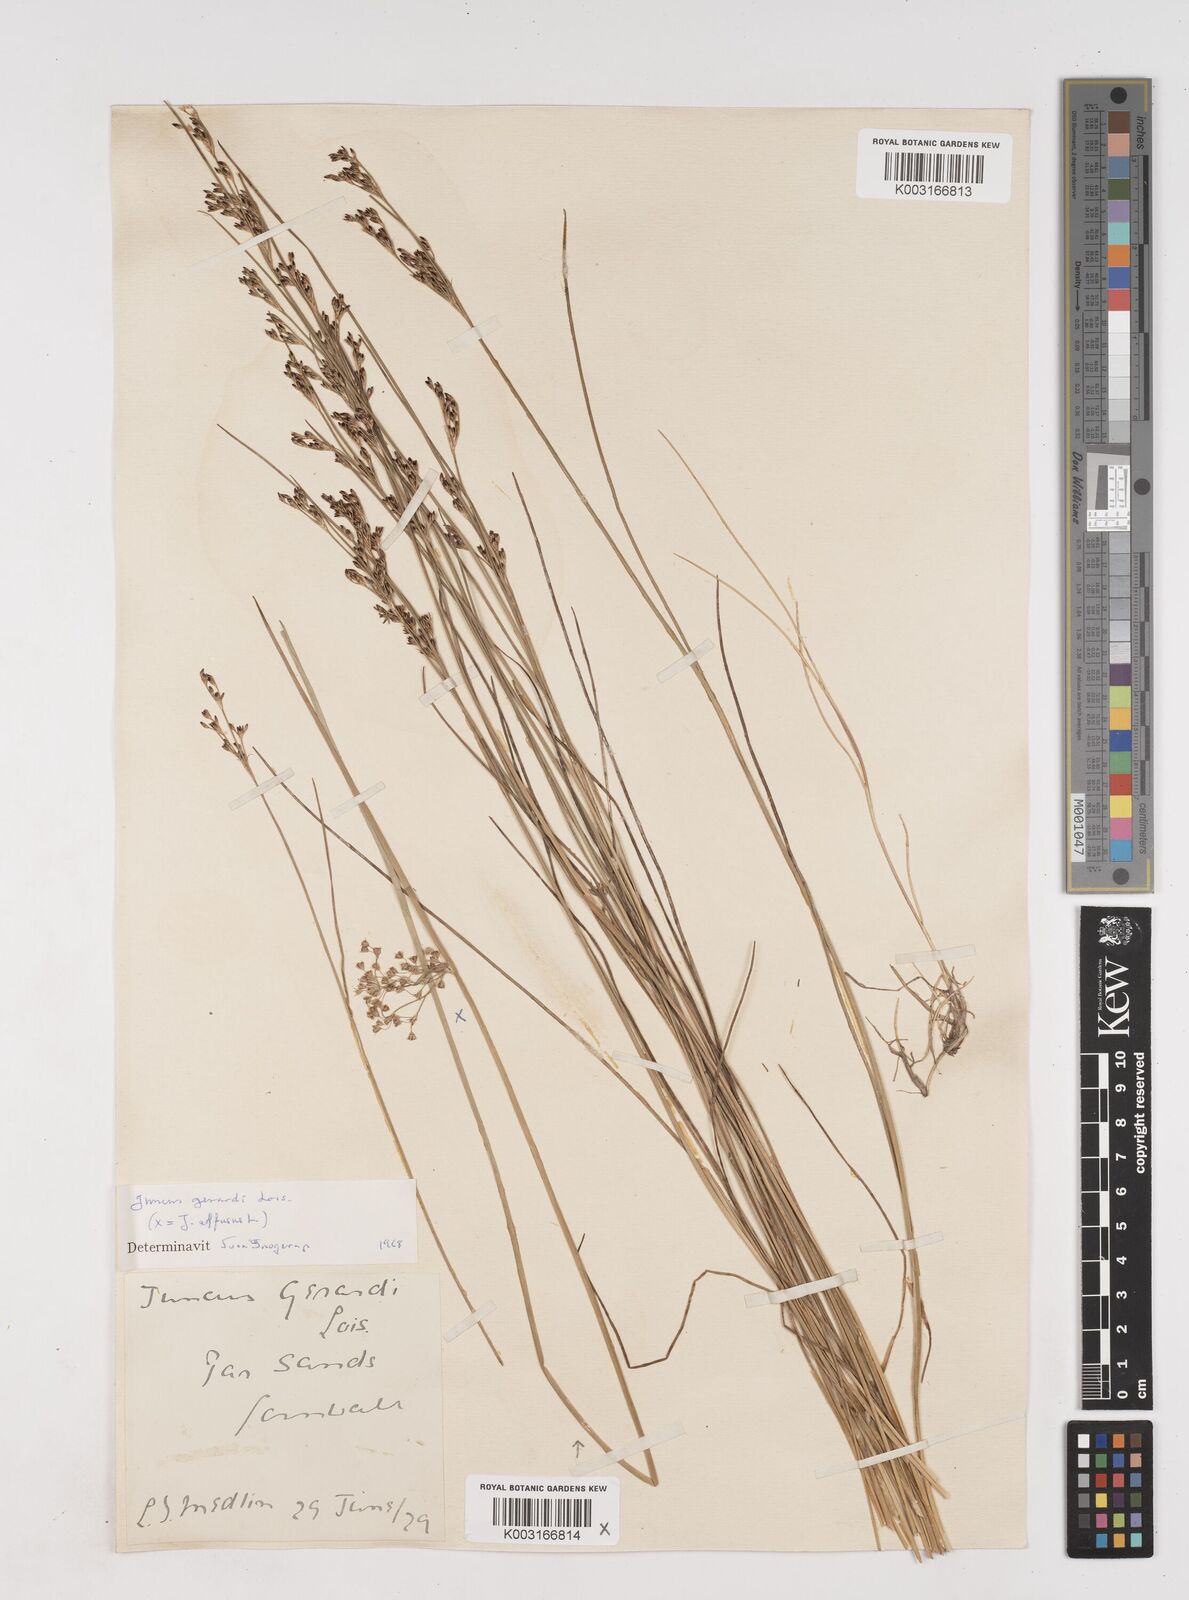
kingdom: Plantae
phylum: Tracheophyta
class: Liliopsida
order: Poales
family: Juncaceae
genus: Juncus
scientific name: Juncus gerardi
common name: Saltmarsh rush
